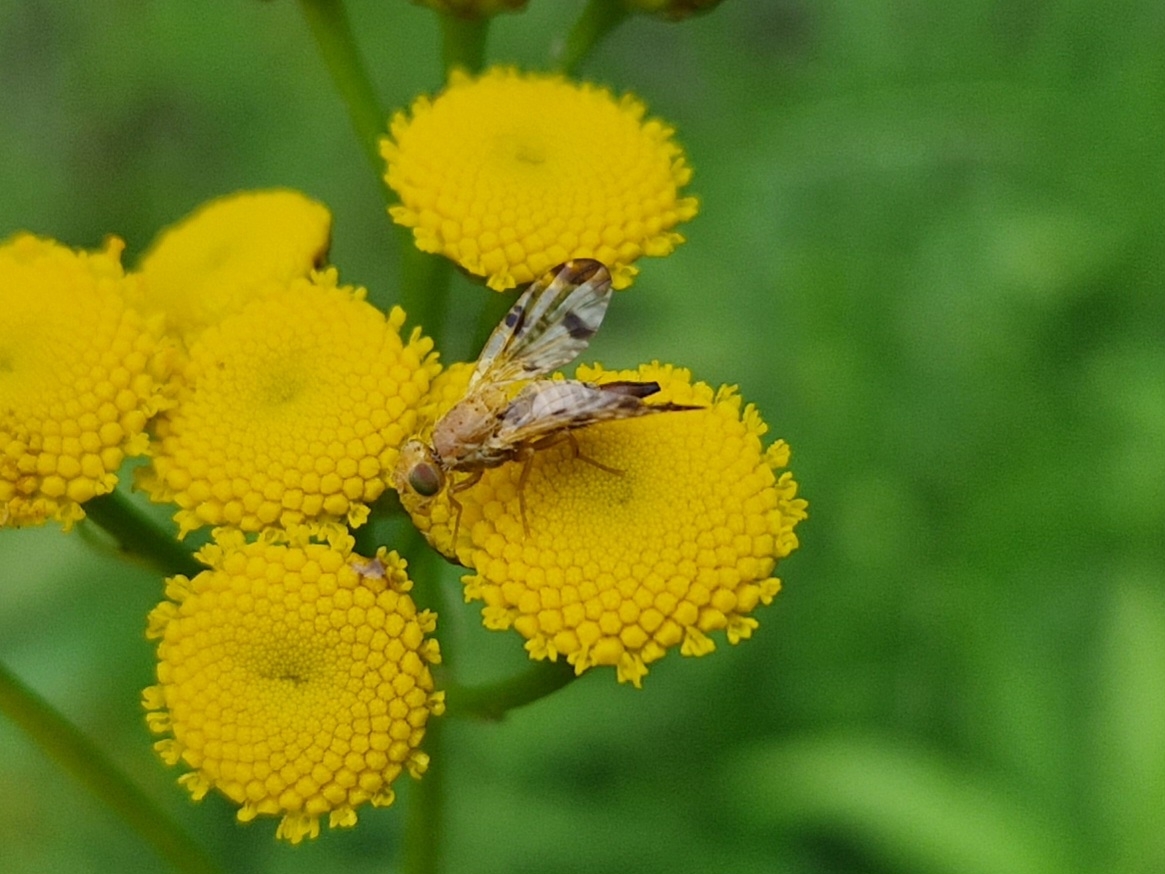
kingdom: Animalia
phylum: Arthropoda
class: Insecta
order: Diptera
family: Tephritidae
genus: Xyphosia
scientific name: Xyphosia miliaria
